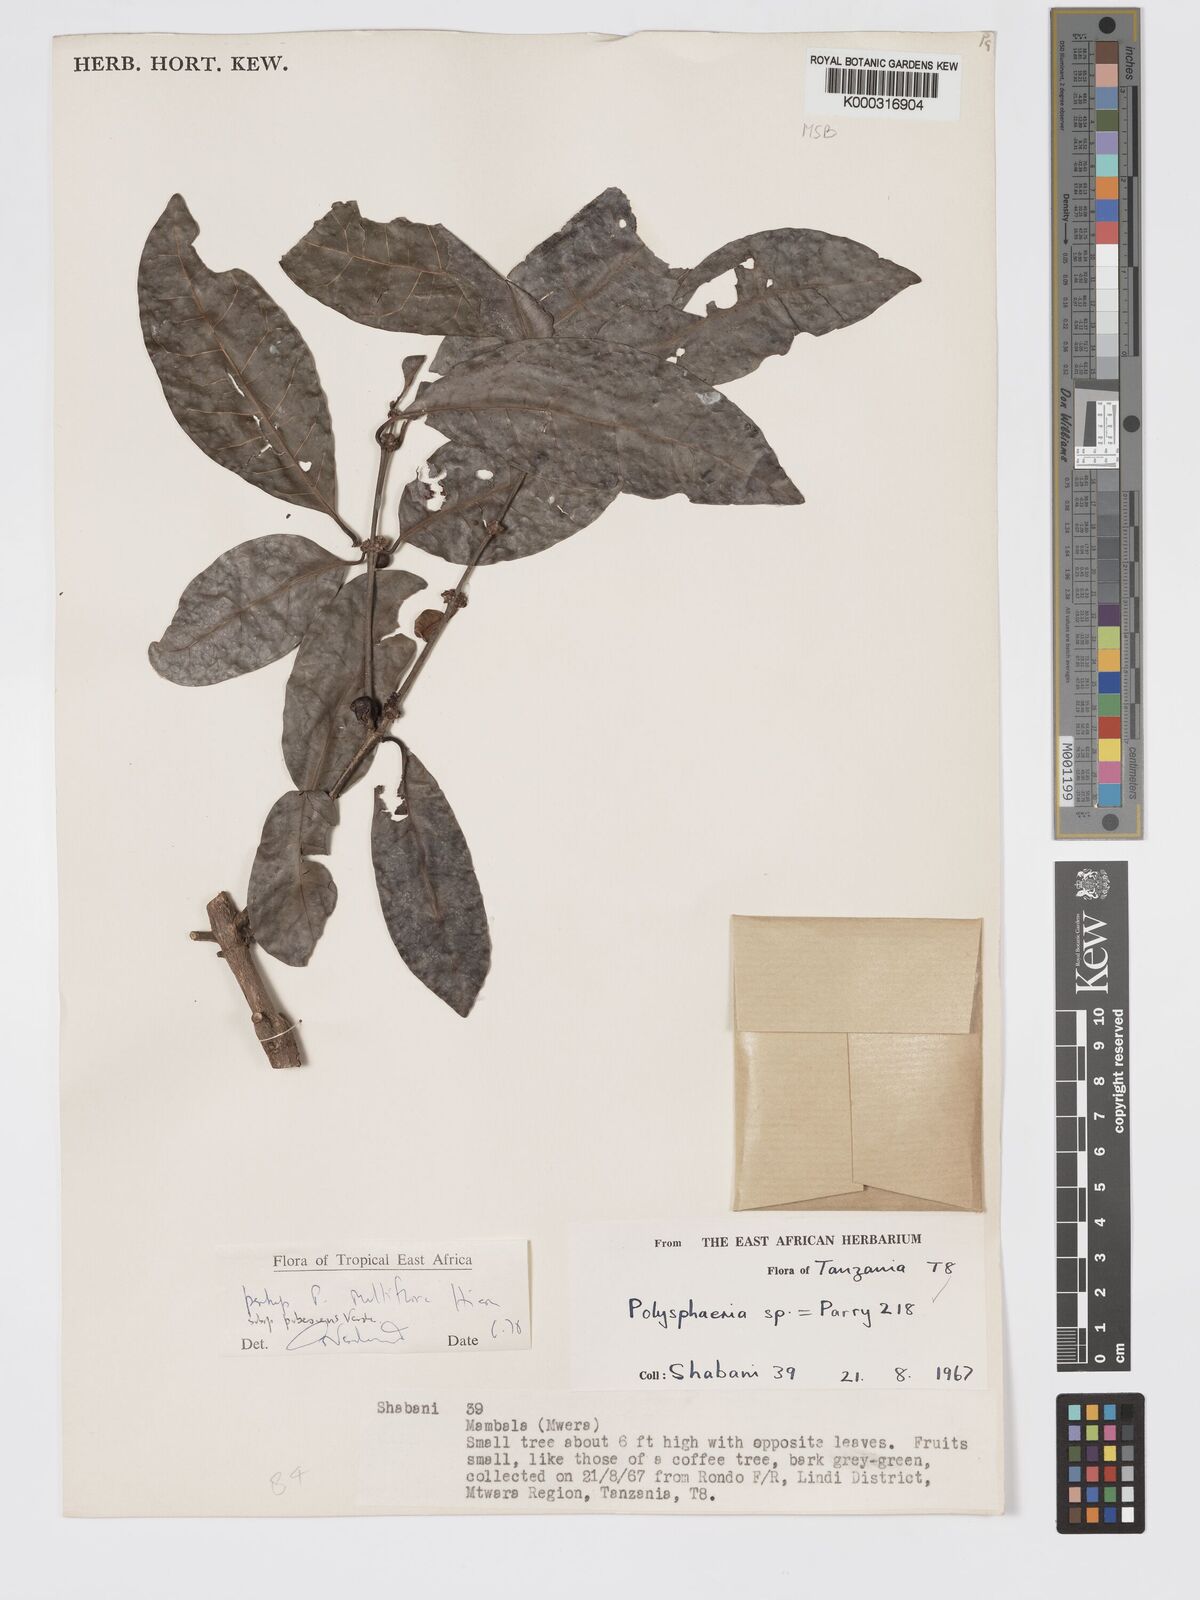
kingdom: Plantae
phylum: Tracheophyta
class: Magnoliopsida
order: Gentianales
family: Rubiaceae
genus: Polysphaeria
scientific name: Polysphaeria multiflora
